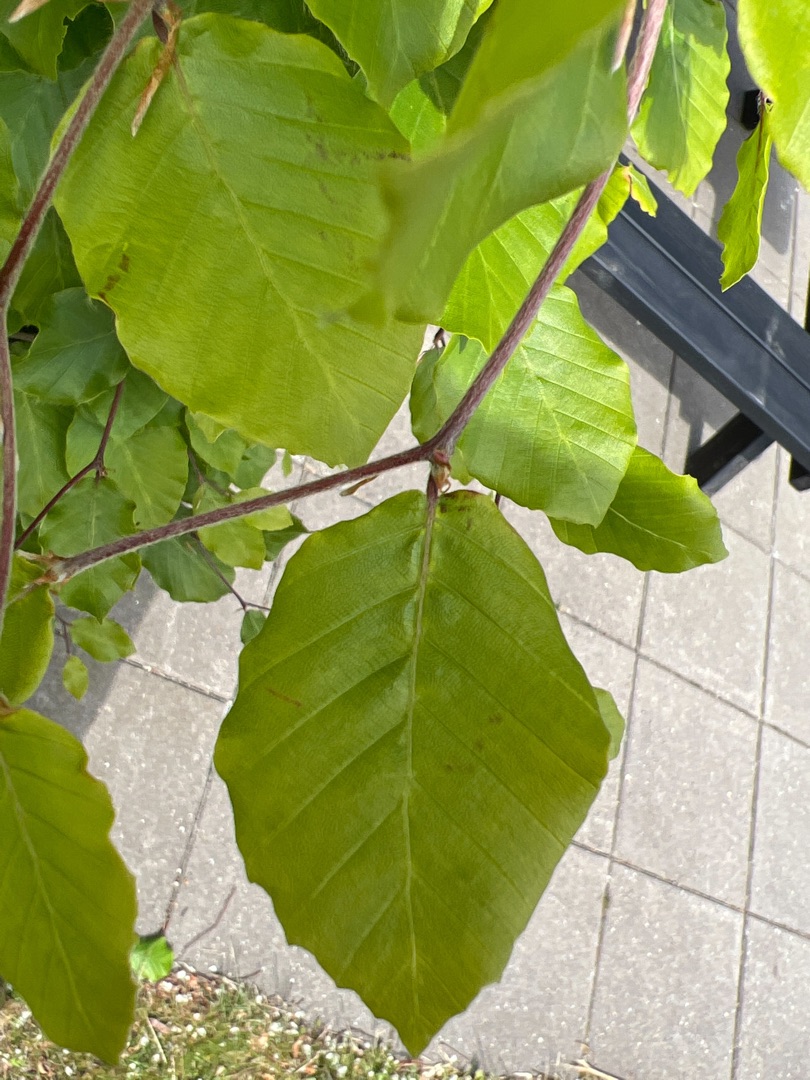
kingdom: Plantae
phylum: Tracheophyta
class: Magnoliopsida
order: Fagales
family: Fagaceae
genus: Fagus
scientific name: Fagus sylvatica
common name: Bøg
